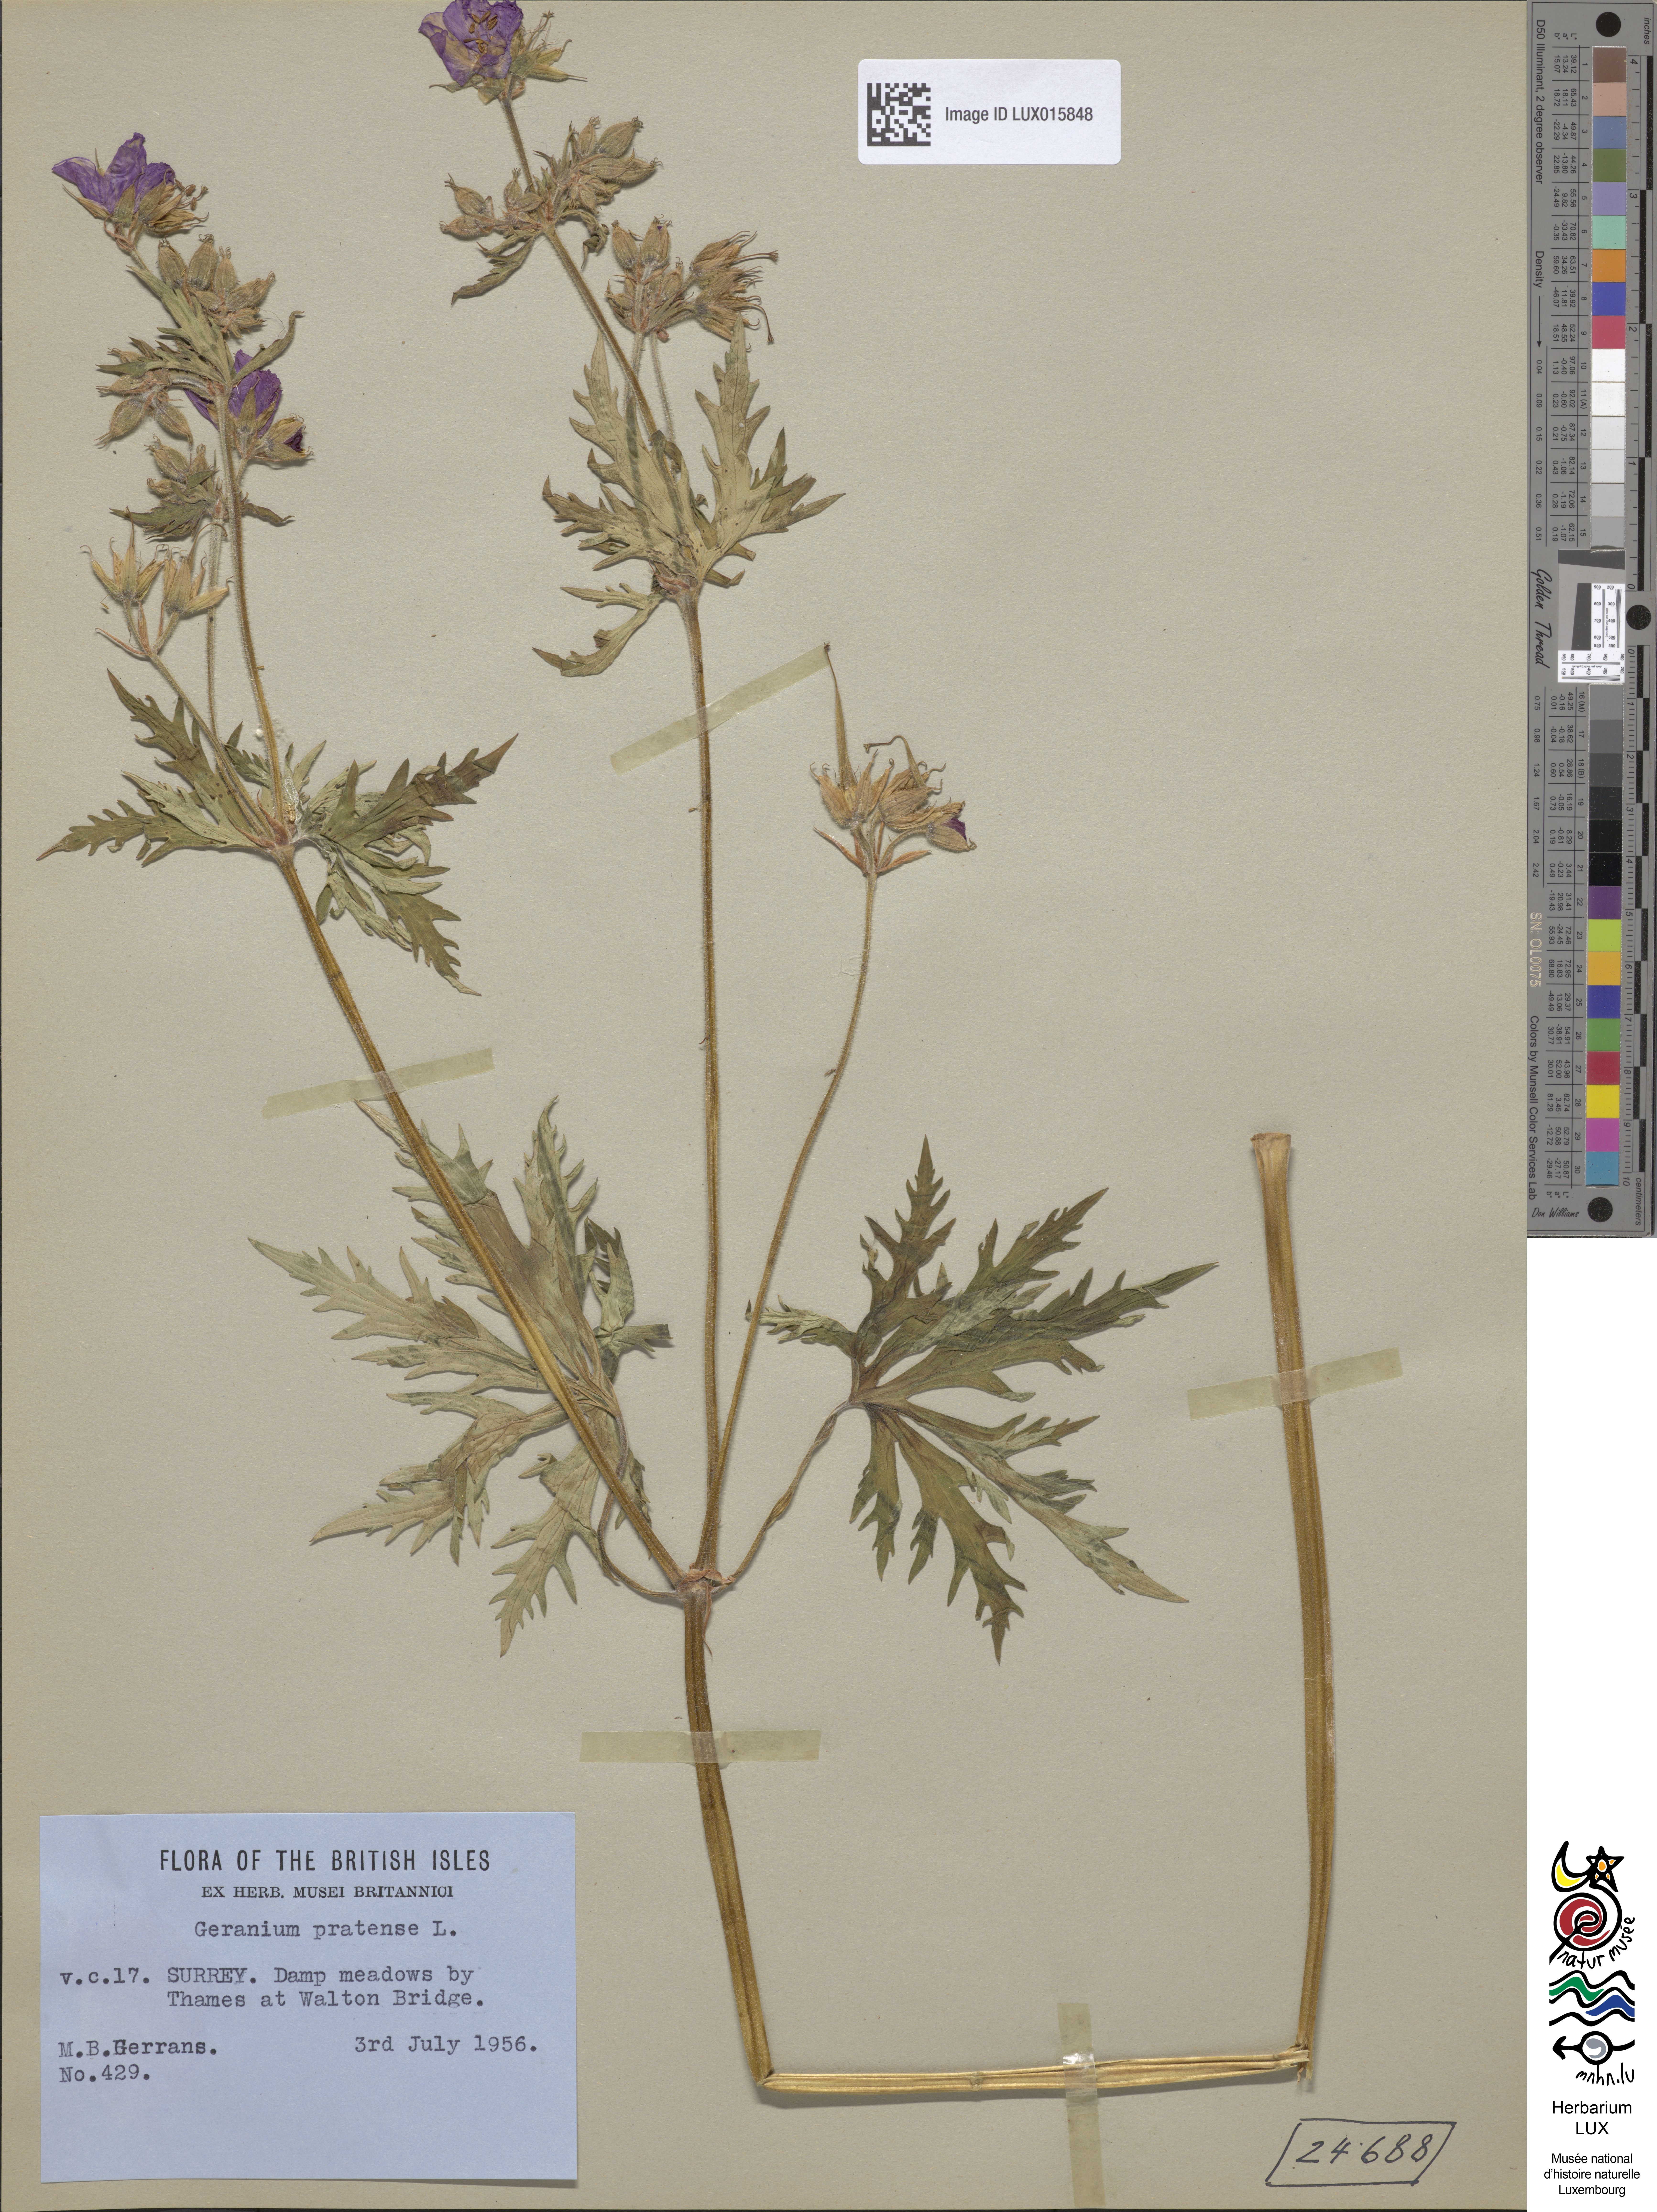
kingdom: Plantae
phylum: Tracheophyta
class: Magnoliopsida
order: Geraniales
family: Geraniaceae
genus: Geranium
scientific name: Geranium pratense
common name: Meadow crane's-bill
